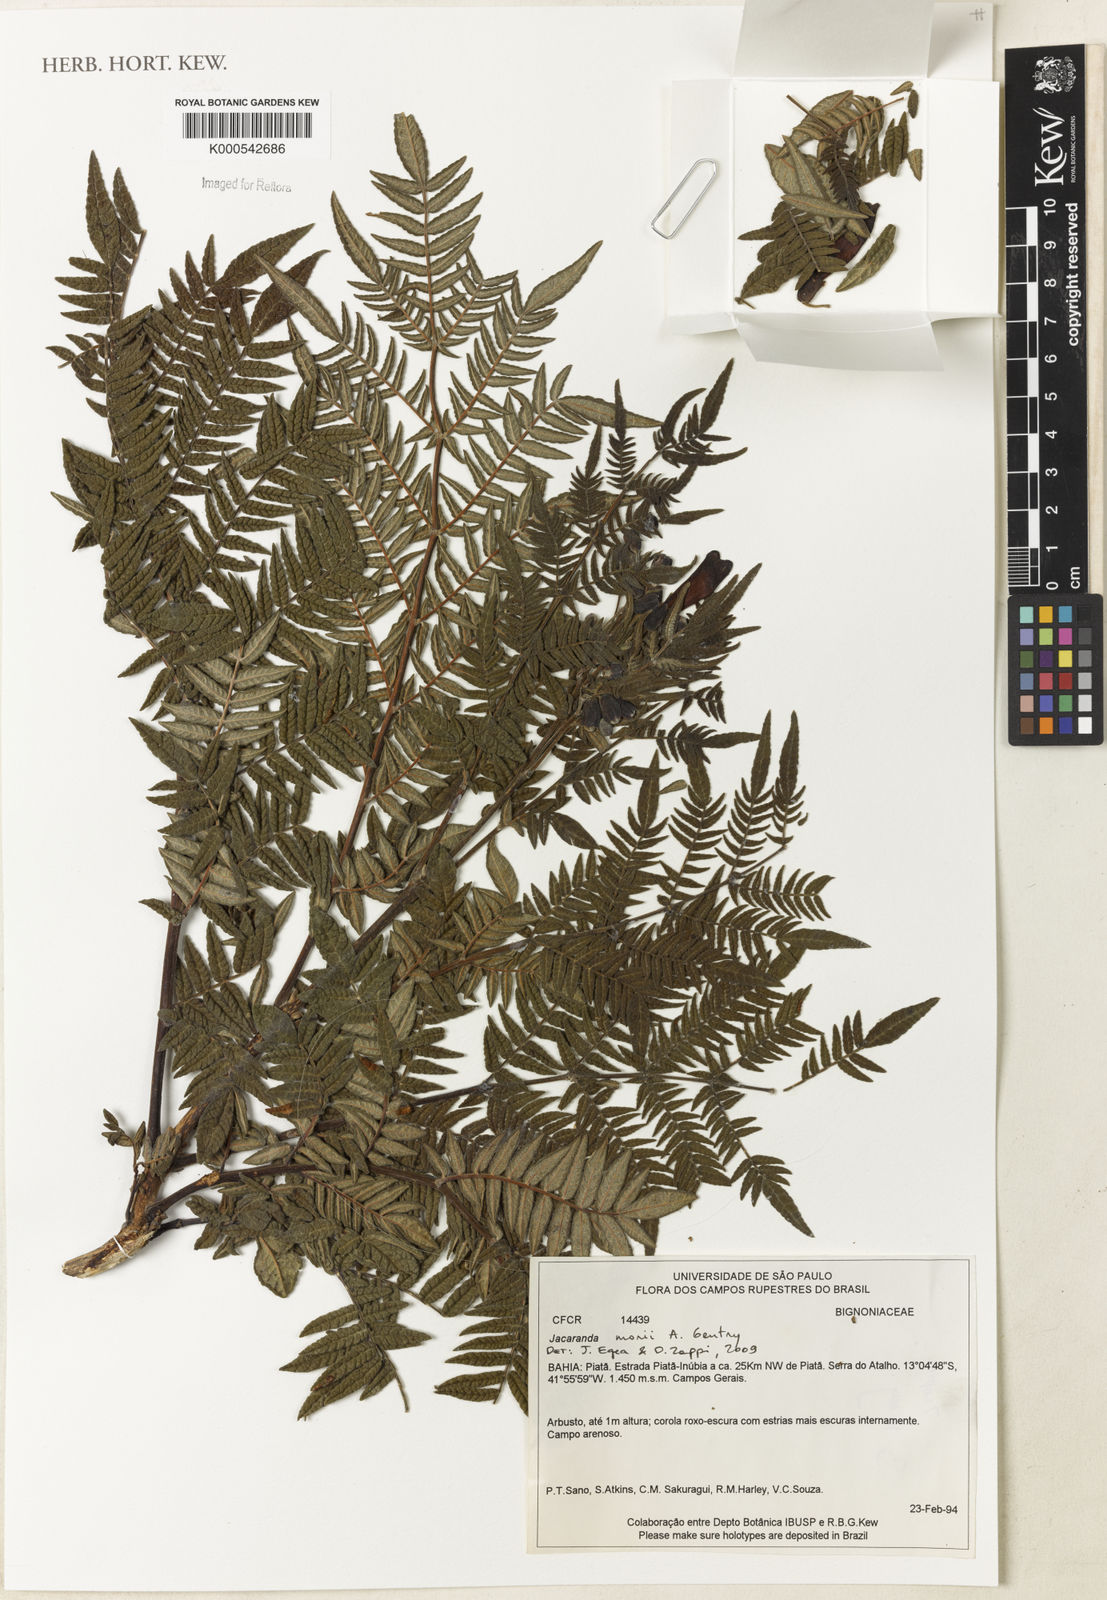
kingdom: Plantae
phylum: Tracheophyta
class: Magnoliopsida
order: Lamiales
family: Bignoniaceae
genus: Jacaranda
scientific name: Jacaranda ulei
